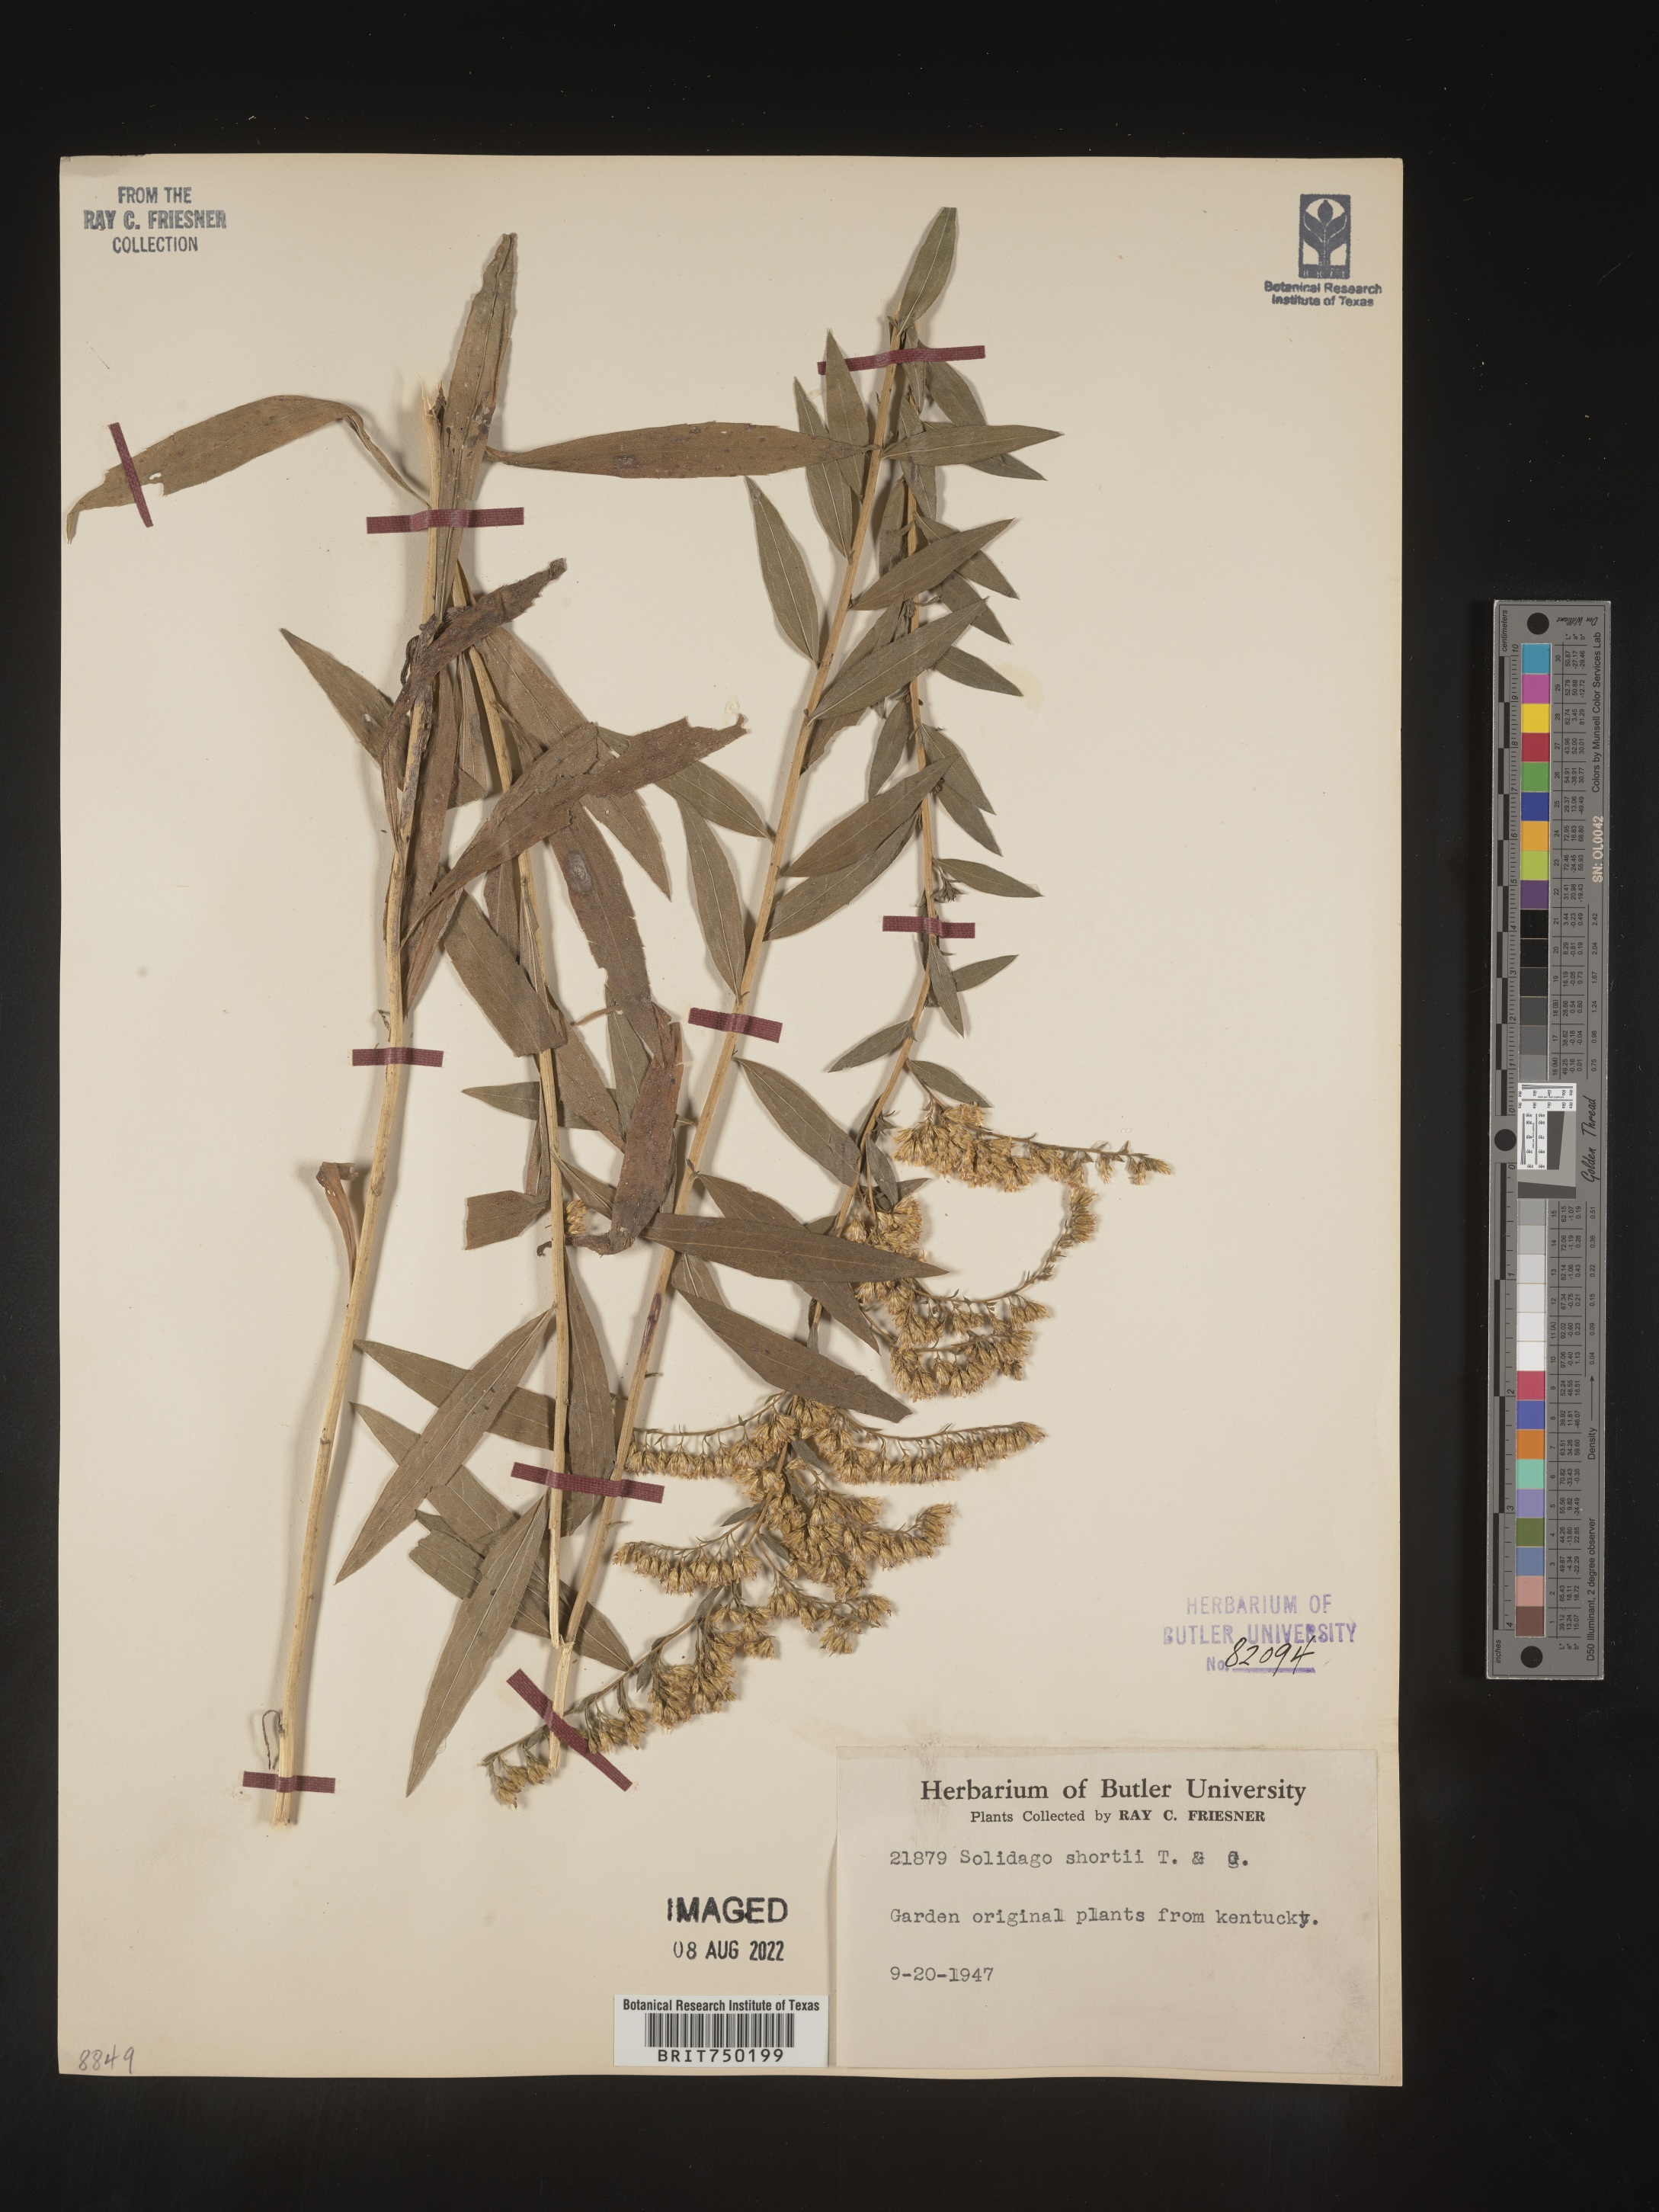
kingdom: Plantae
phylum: Tracheophyta
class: Magnoliopsida
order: Asterales
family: Asteraceae
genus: Solidago
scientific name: Solidago
